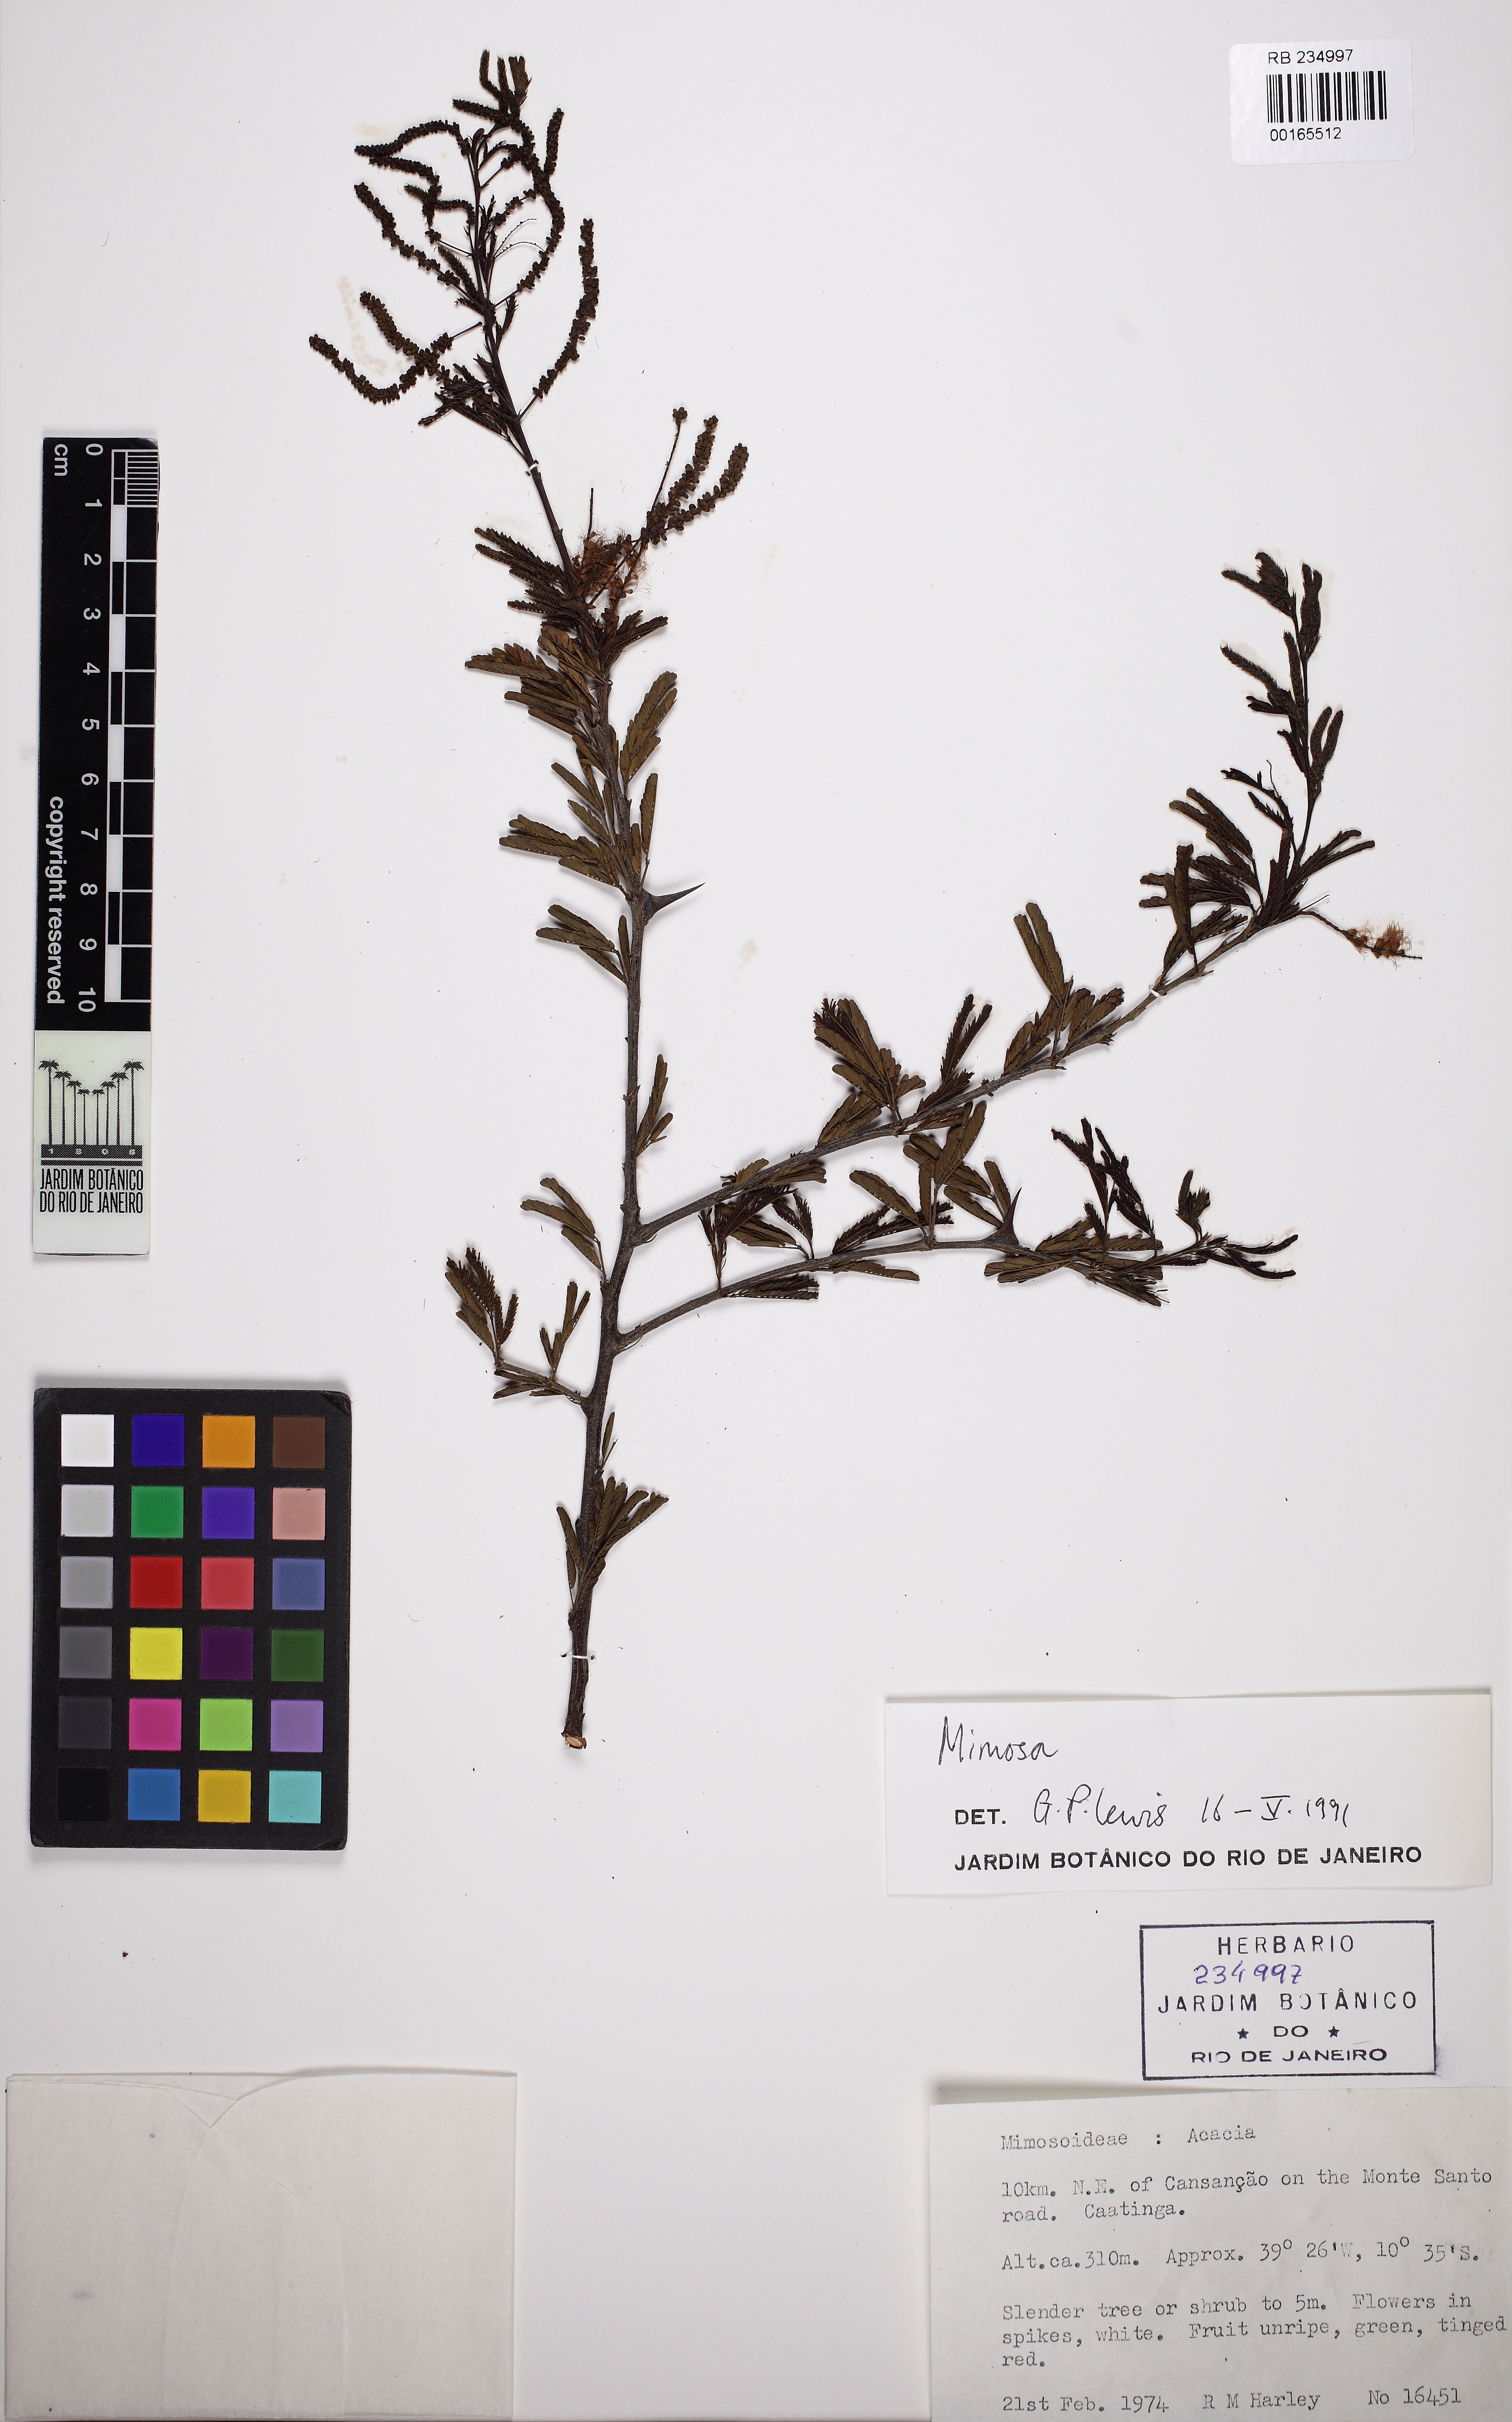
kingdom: Plantae
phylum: Tracheophyta
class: Magnoliopsida
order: Fabales
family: Fabaceae
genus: Mimosa
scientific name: Mimosa
